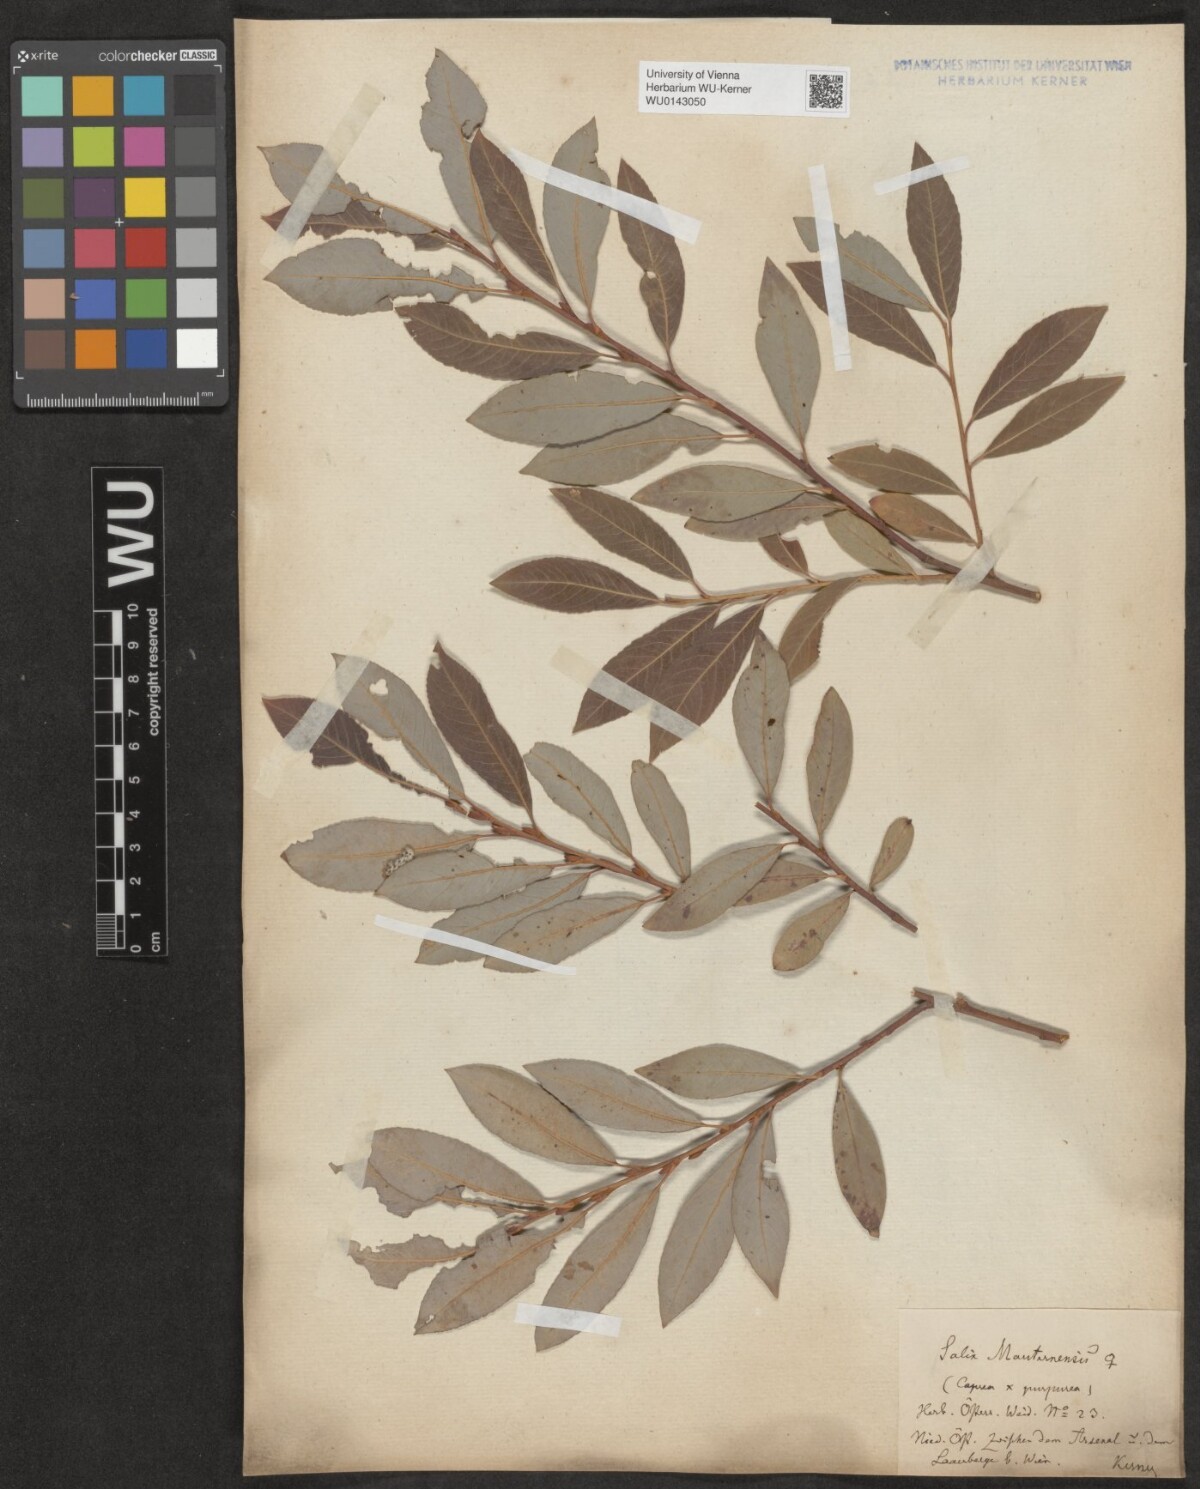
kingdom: Plantae
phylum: Tracheophyta
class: Magnoliopsida
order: Malpighiales
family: Salicaceae
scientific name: Salicaceae
